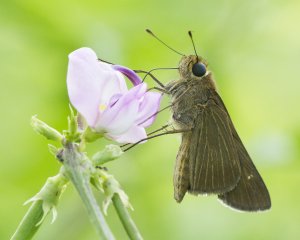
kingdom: Animalia
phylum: Arthropoda
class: Insecta
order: Lepidoptera
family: Hesperiidae
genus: Panoquina
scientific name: Panoquina ocola
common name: Ocola Skipper
